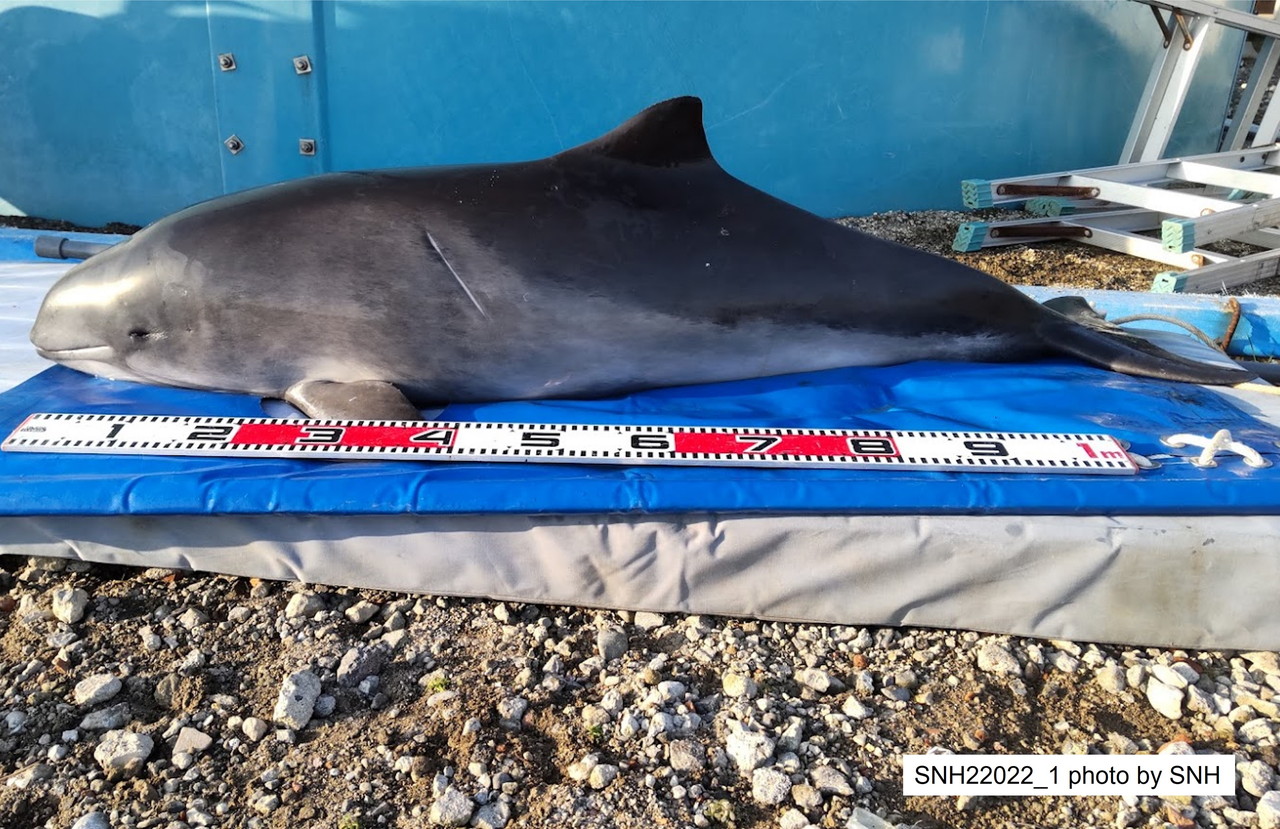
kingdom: Animalia
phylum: Chordata
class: Mammalia
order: Cetacea
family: Phocoenidae
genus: Phocoena
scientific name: Phocoena phocoena
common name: Harbour porpoise
